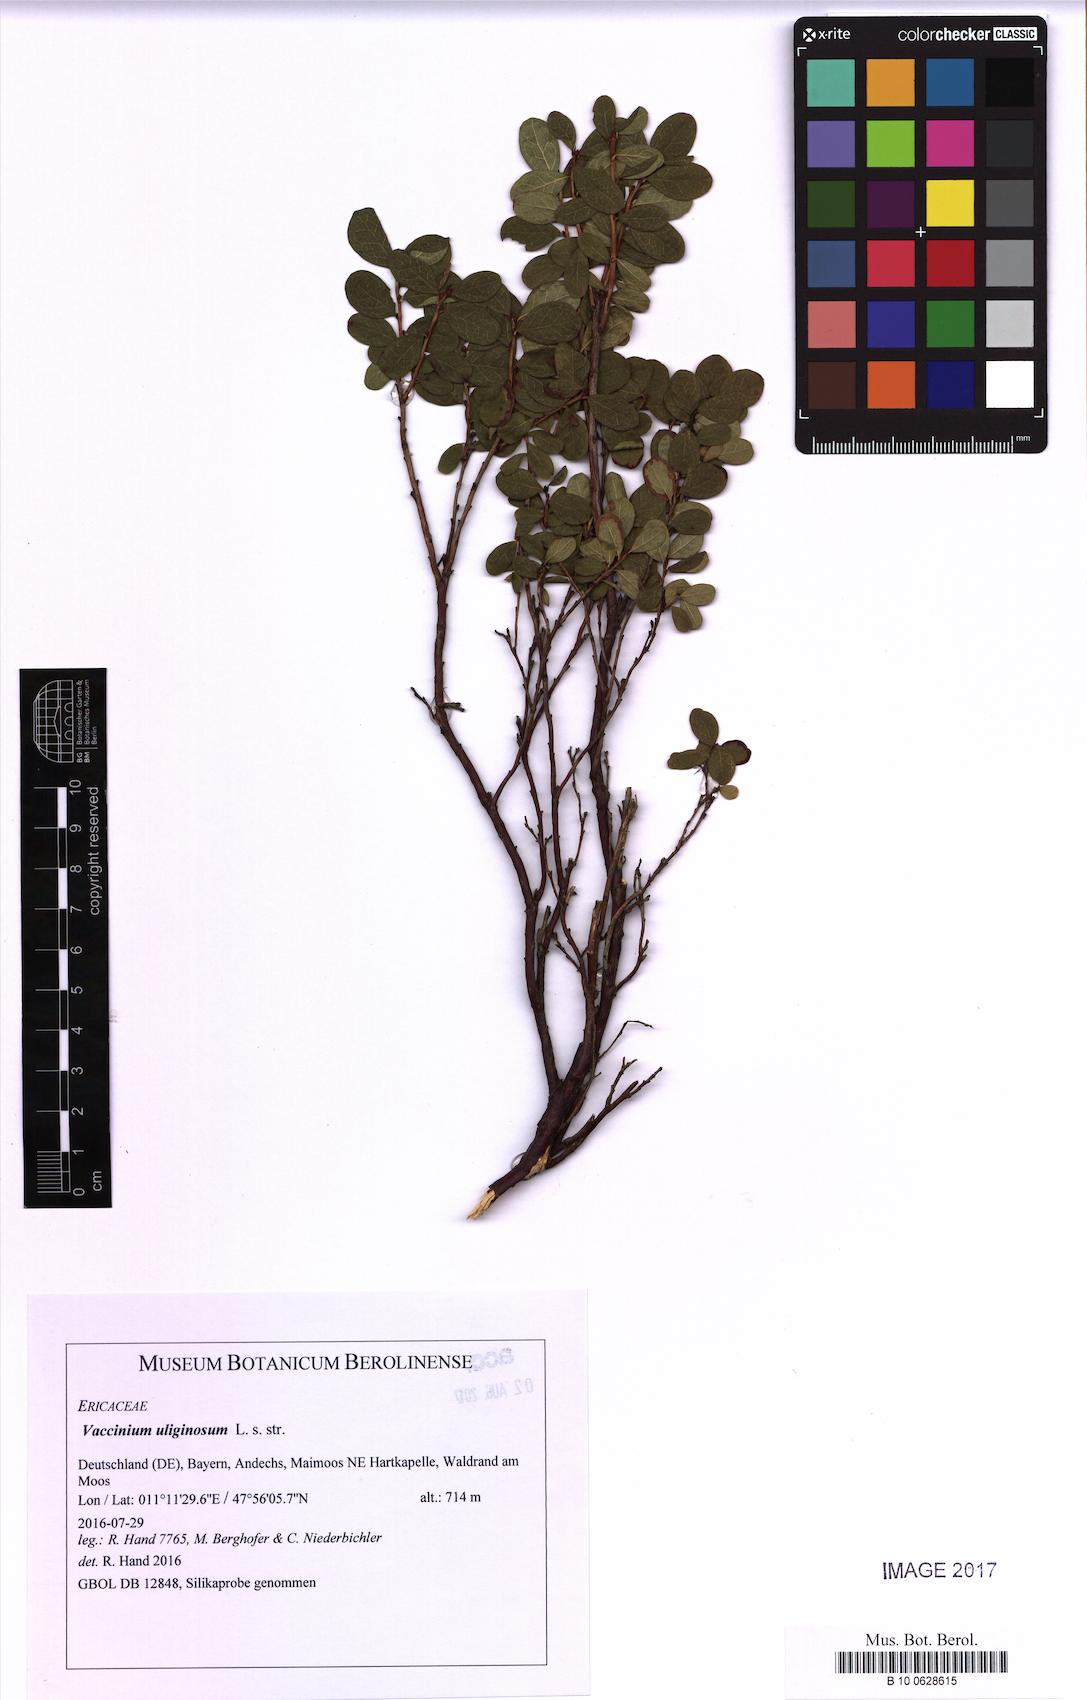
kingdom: Plantae
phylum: Tracheophyta
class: Magnoliopsida
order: Ericales
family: Ericaceae
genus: Vaccinium
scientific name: Vaccinium uliginosum
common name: Bog bilberry
